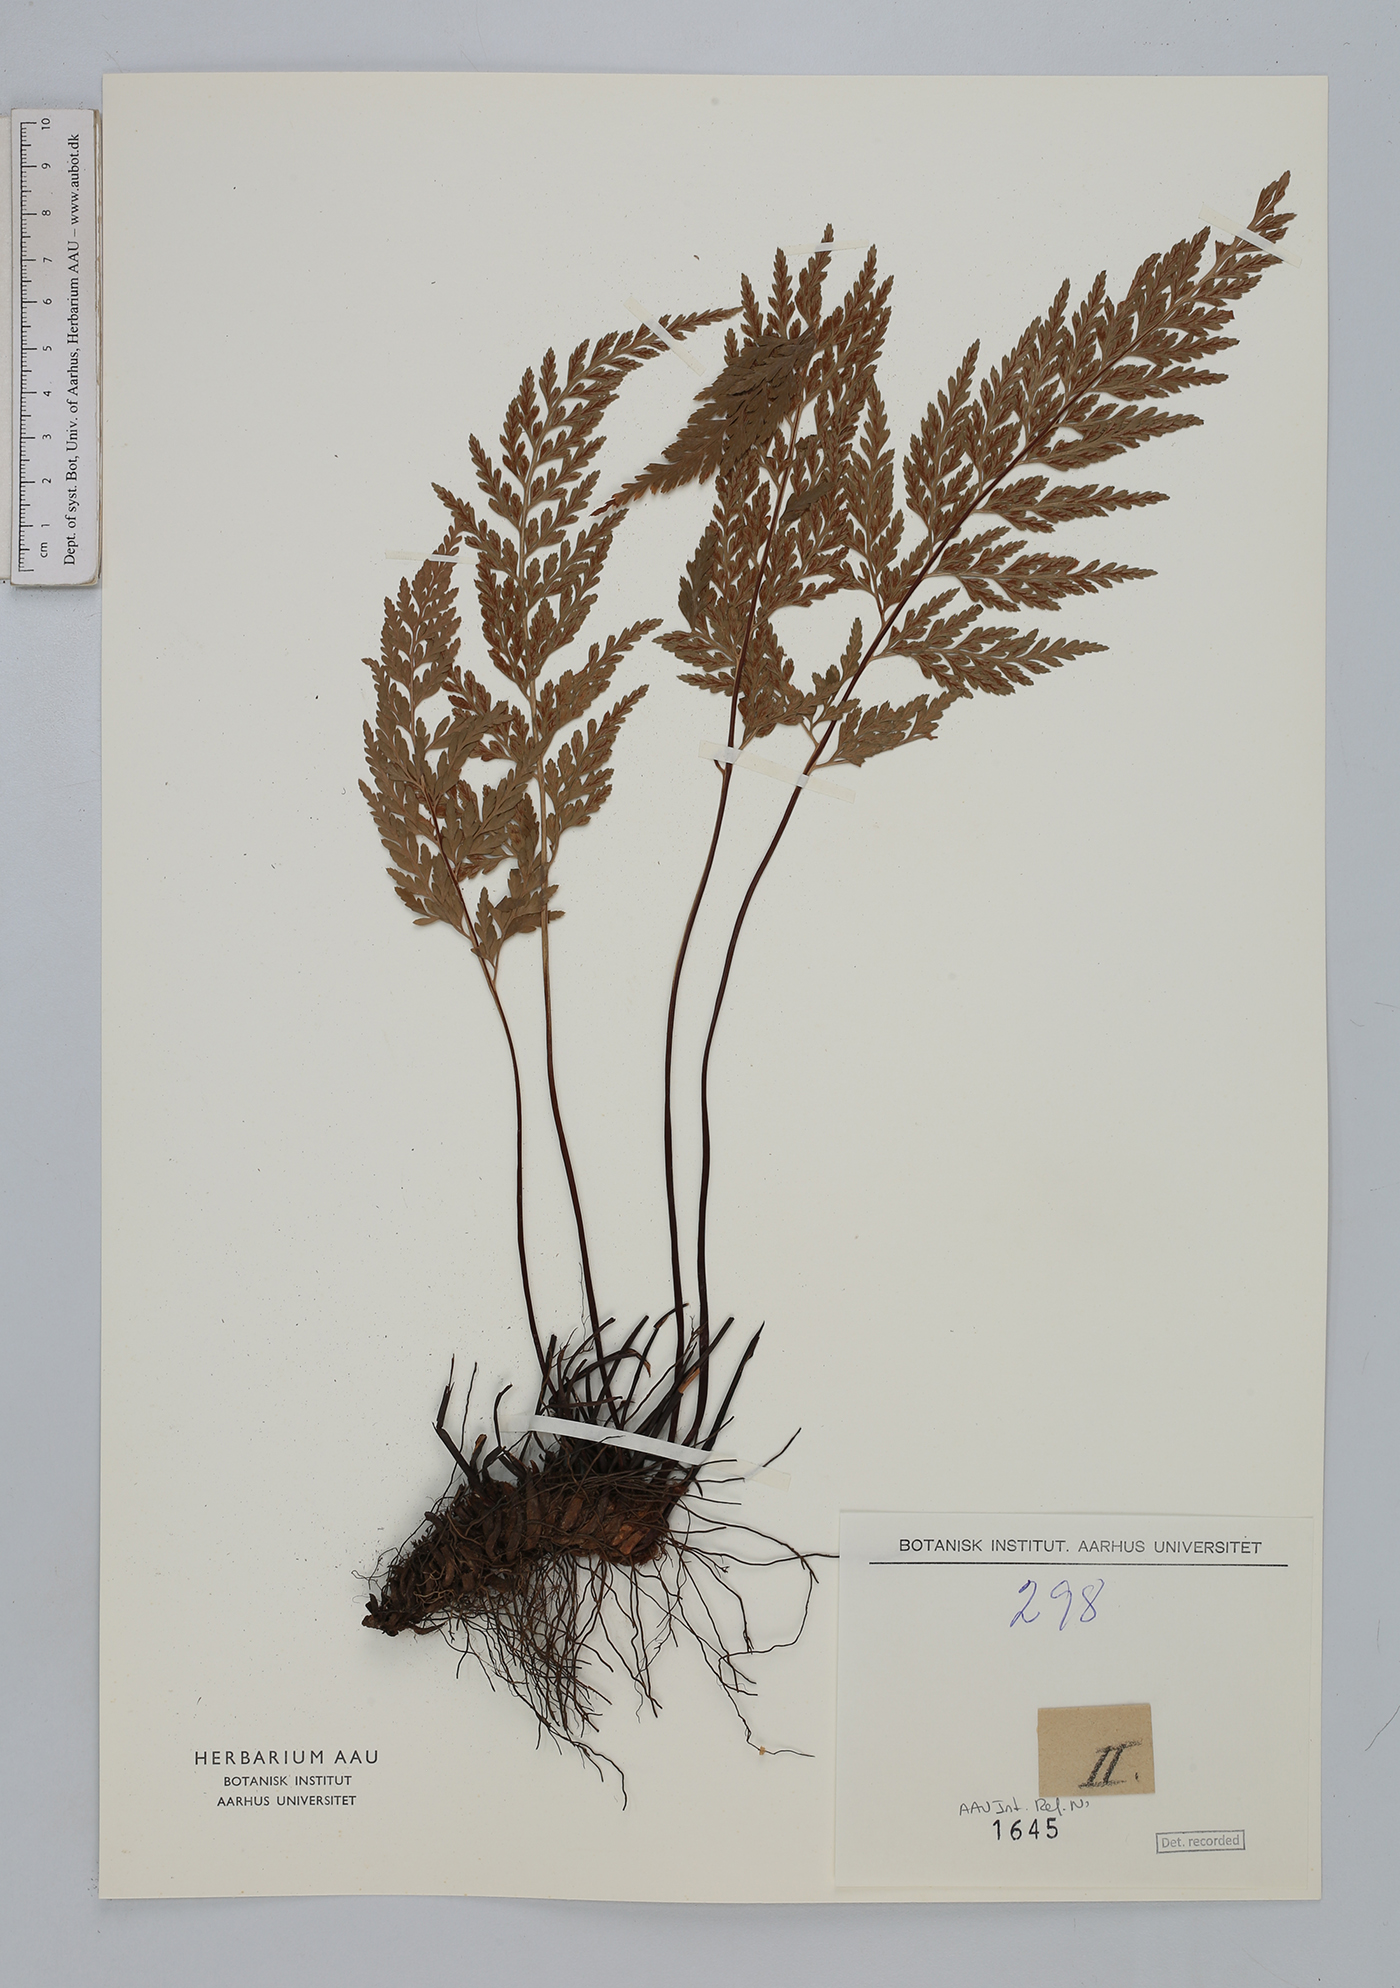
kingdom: Plantae
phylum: Tracheophyta
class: Polypodiopsida
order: Polypodiales
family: Aspleniaceae
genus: Asplenium
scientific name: Asplenium adiantum-nigrum
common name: Black spleenwort
